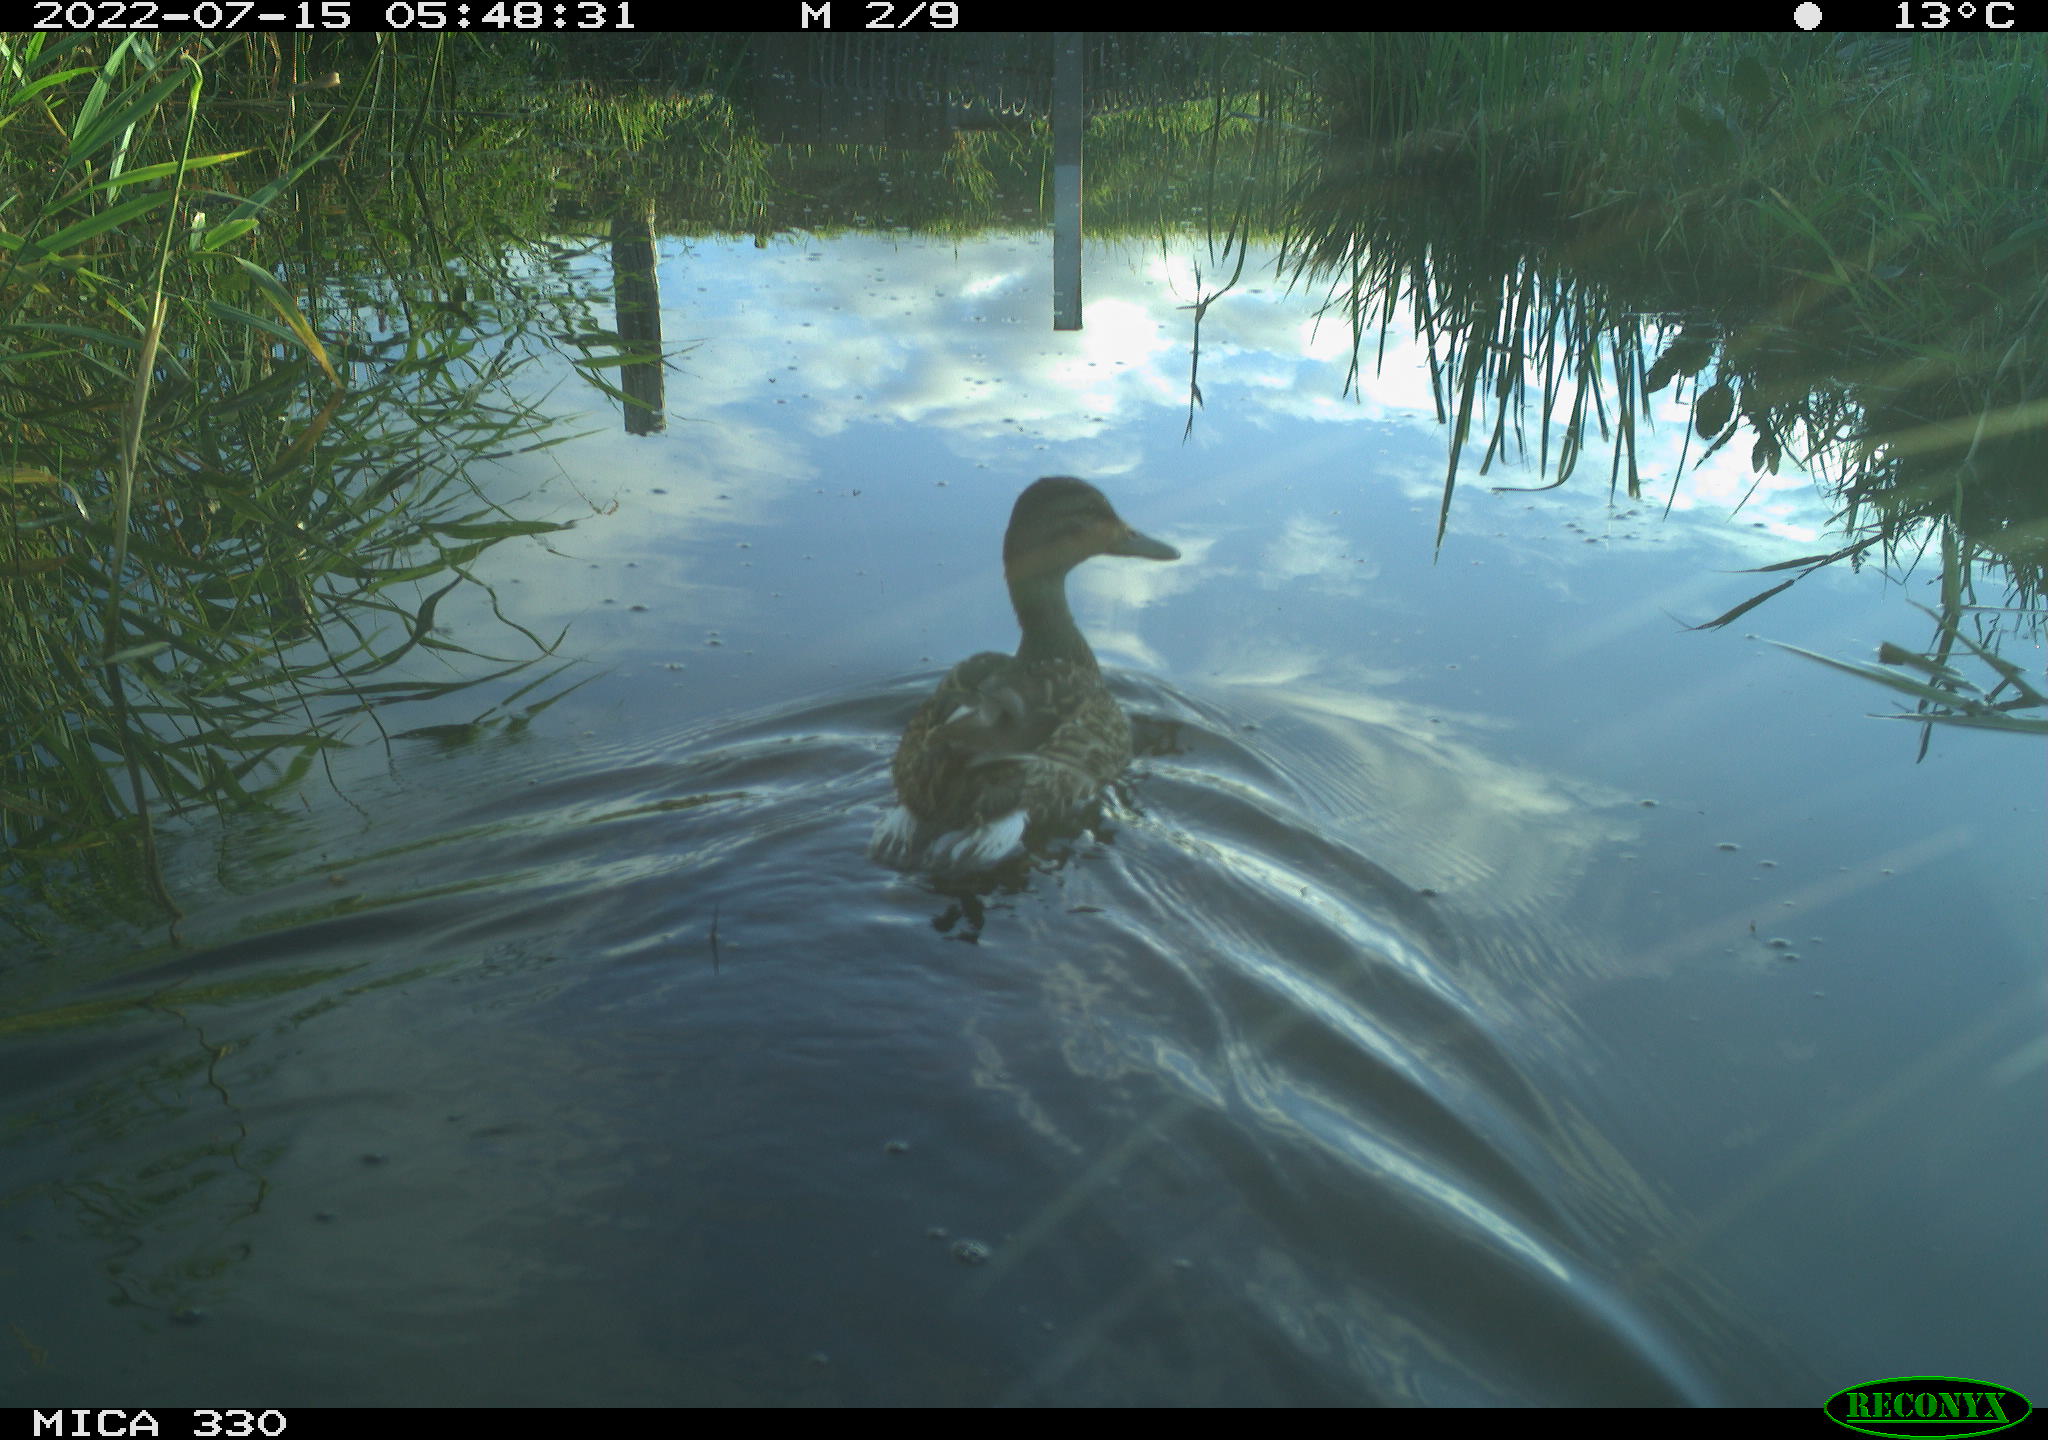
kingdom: Animalia
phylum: Chordata
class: Aves
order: Anseriformes
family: Anatidae
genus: Anas
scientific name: Anas platyrhynchos
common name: Mallard
